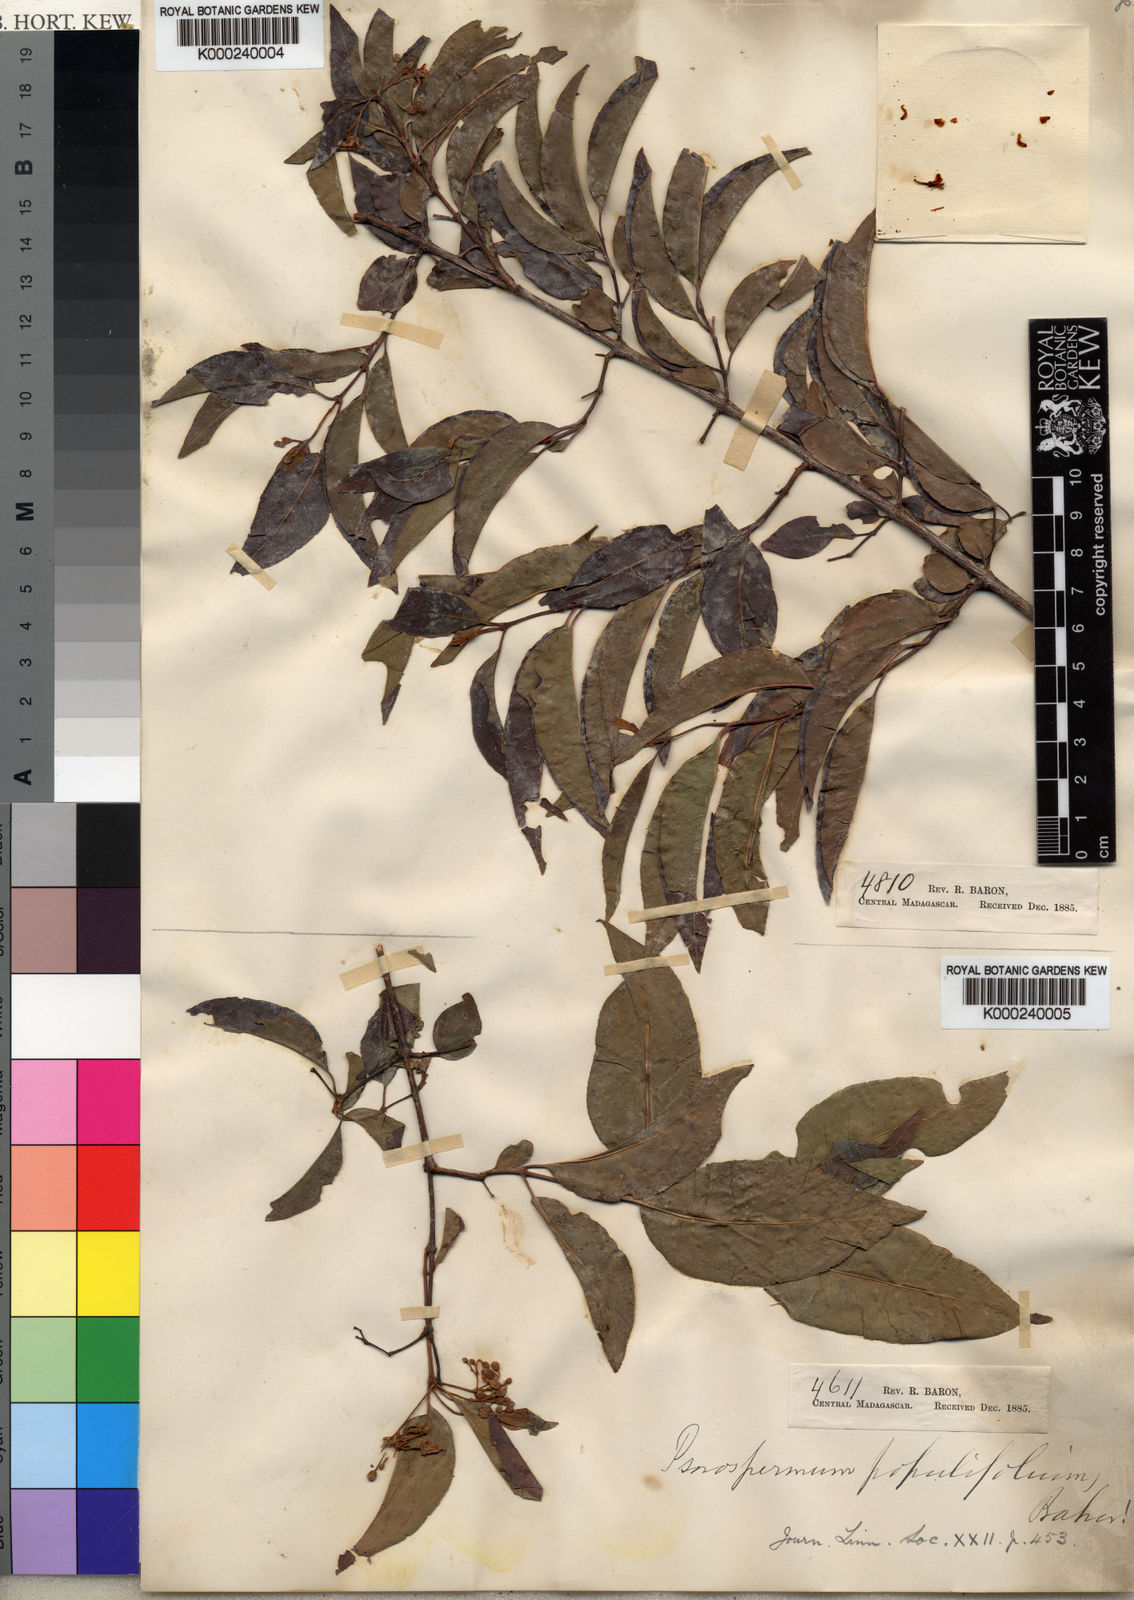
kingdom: Plantae
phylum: Tracheophyta
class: Magnoliopsida
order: Malpighiales
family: Hypericaceae
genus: Harungana
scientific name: Harungana
